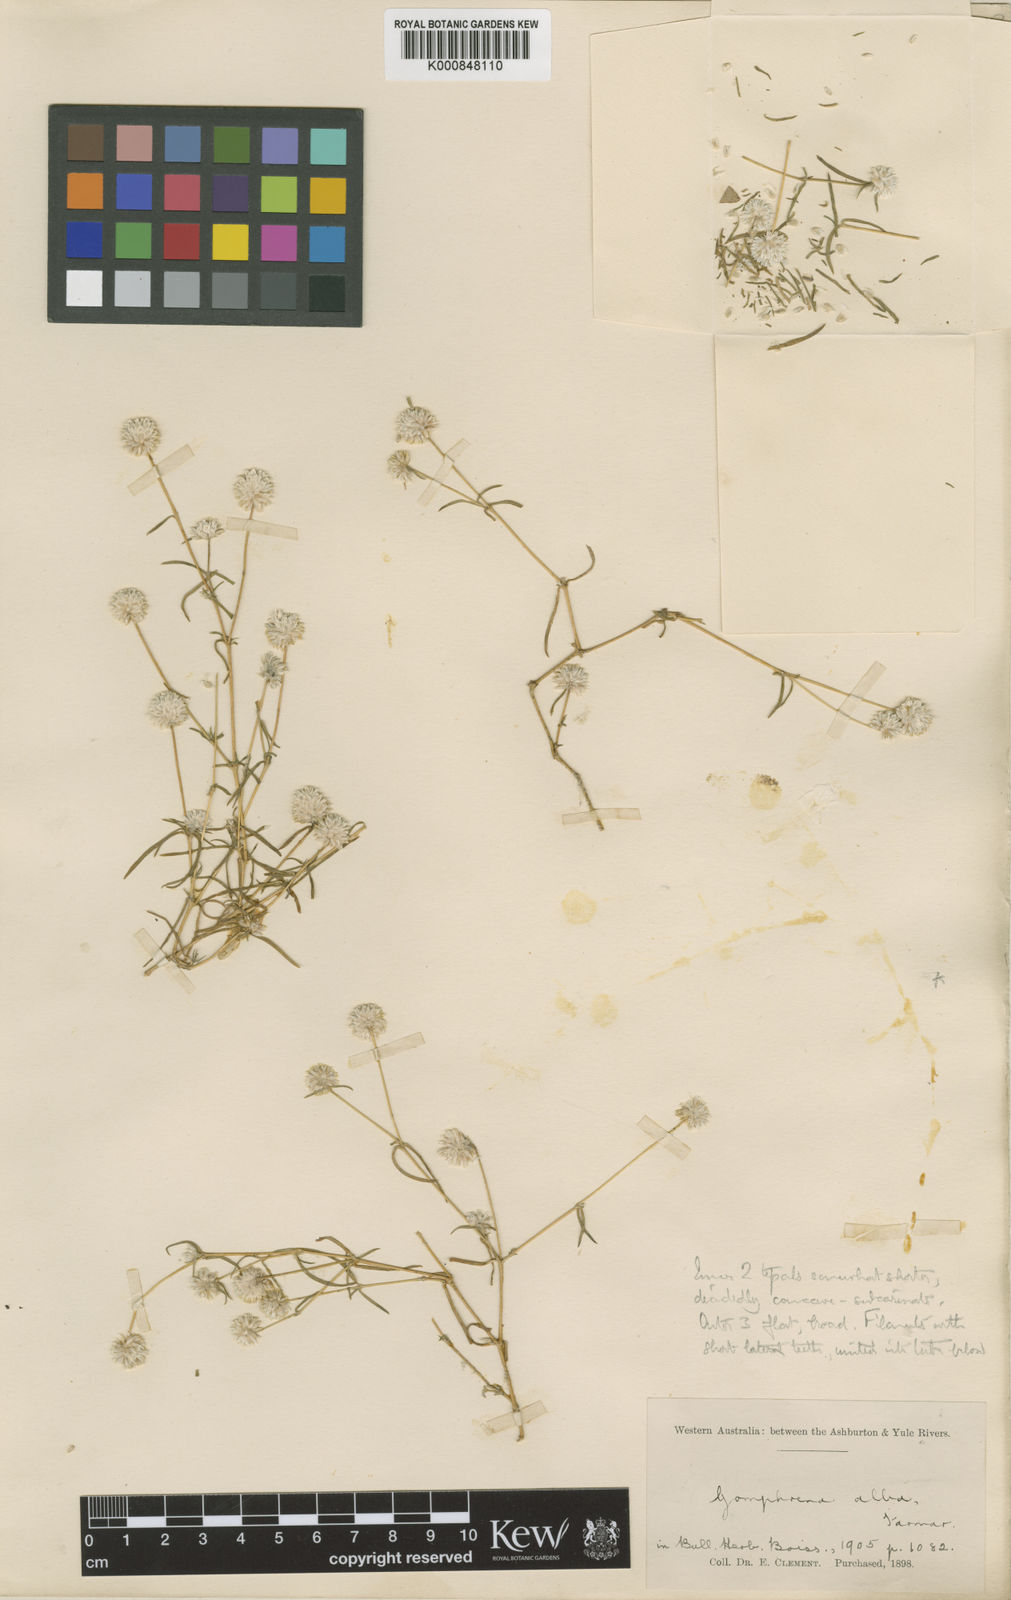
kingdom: Plantae
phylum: Tracheophyta
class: Magnoliopsida
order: Caryophyllales
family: Amaranthaceae
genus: Gomphrena
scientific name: Gomphrena tenella
